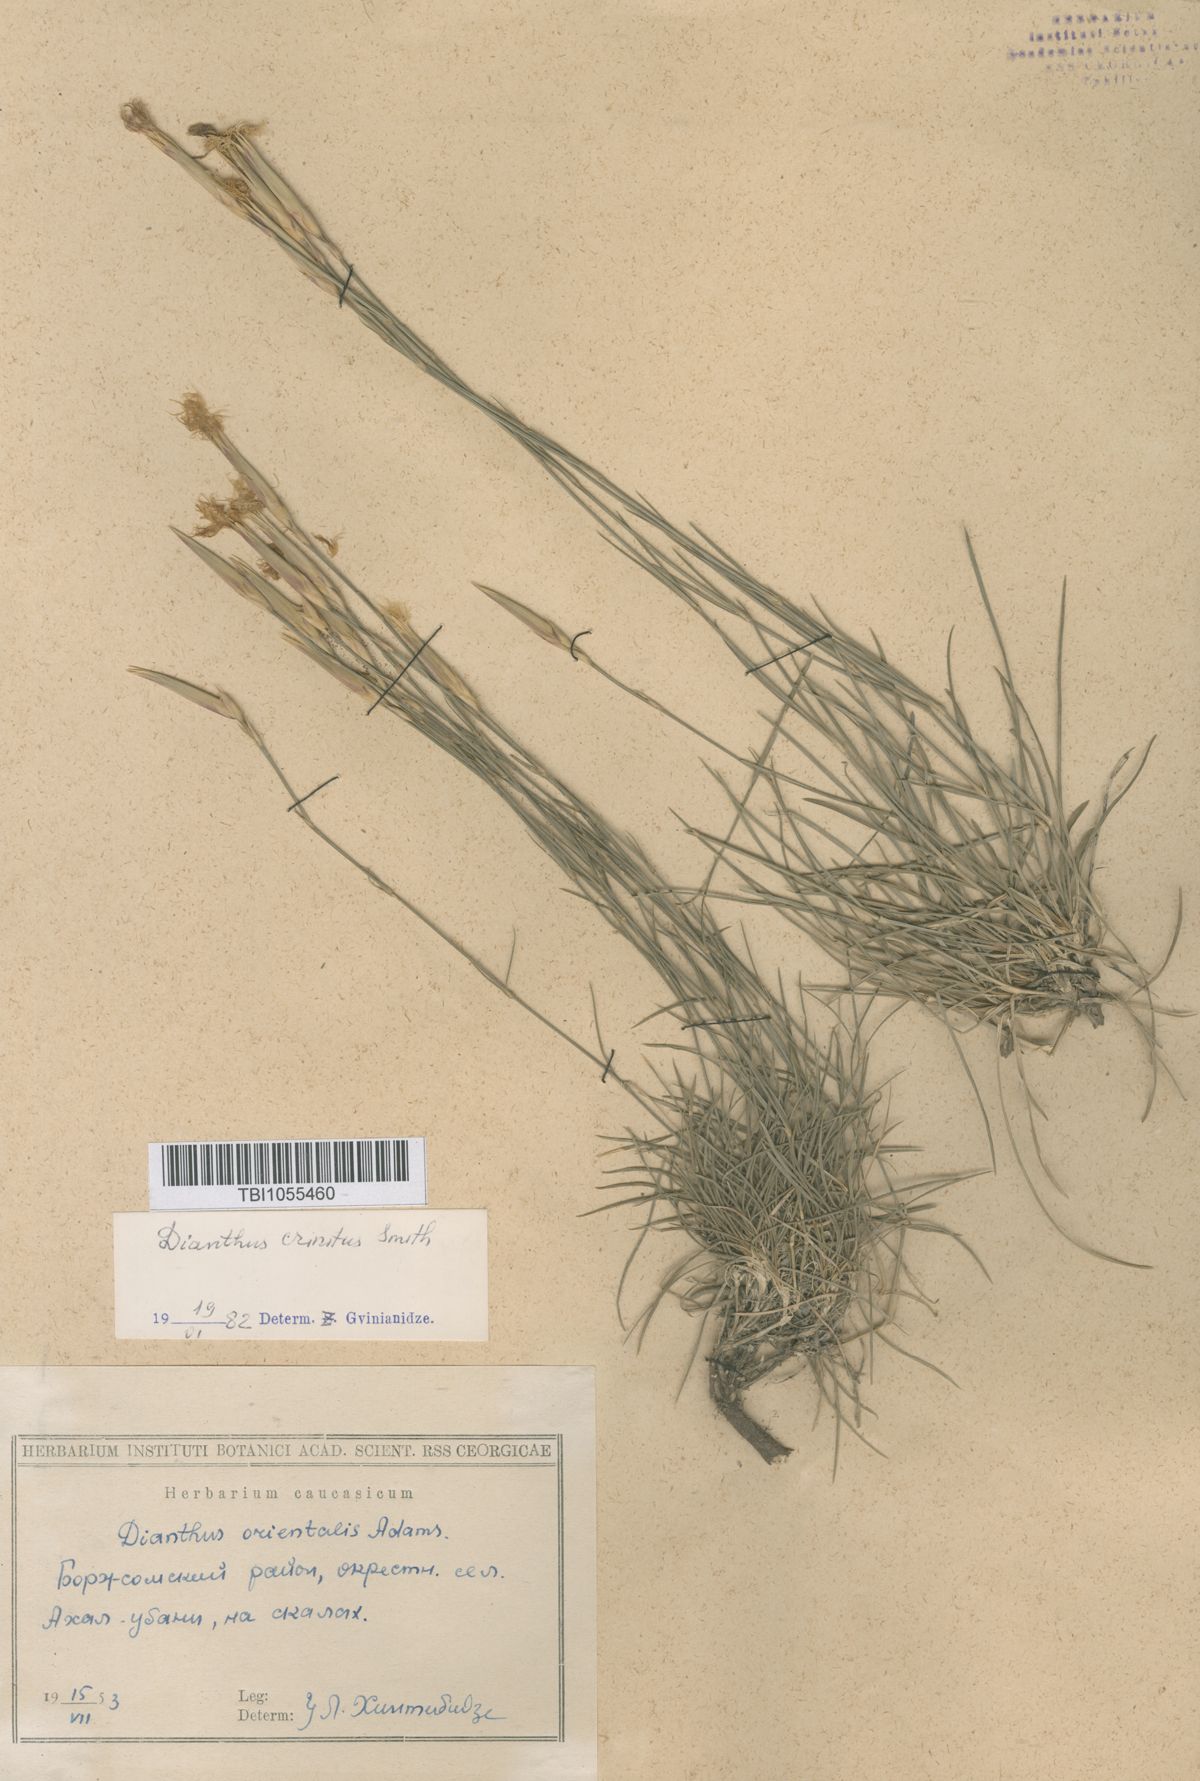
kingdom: Plantae
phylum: Tracheophyta
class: Magnoliopsida
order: Caryophyllales
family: Caryophyllaceae
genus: Dianthus
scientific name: Dianthus crinitus
